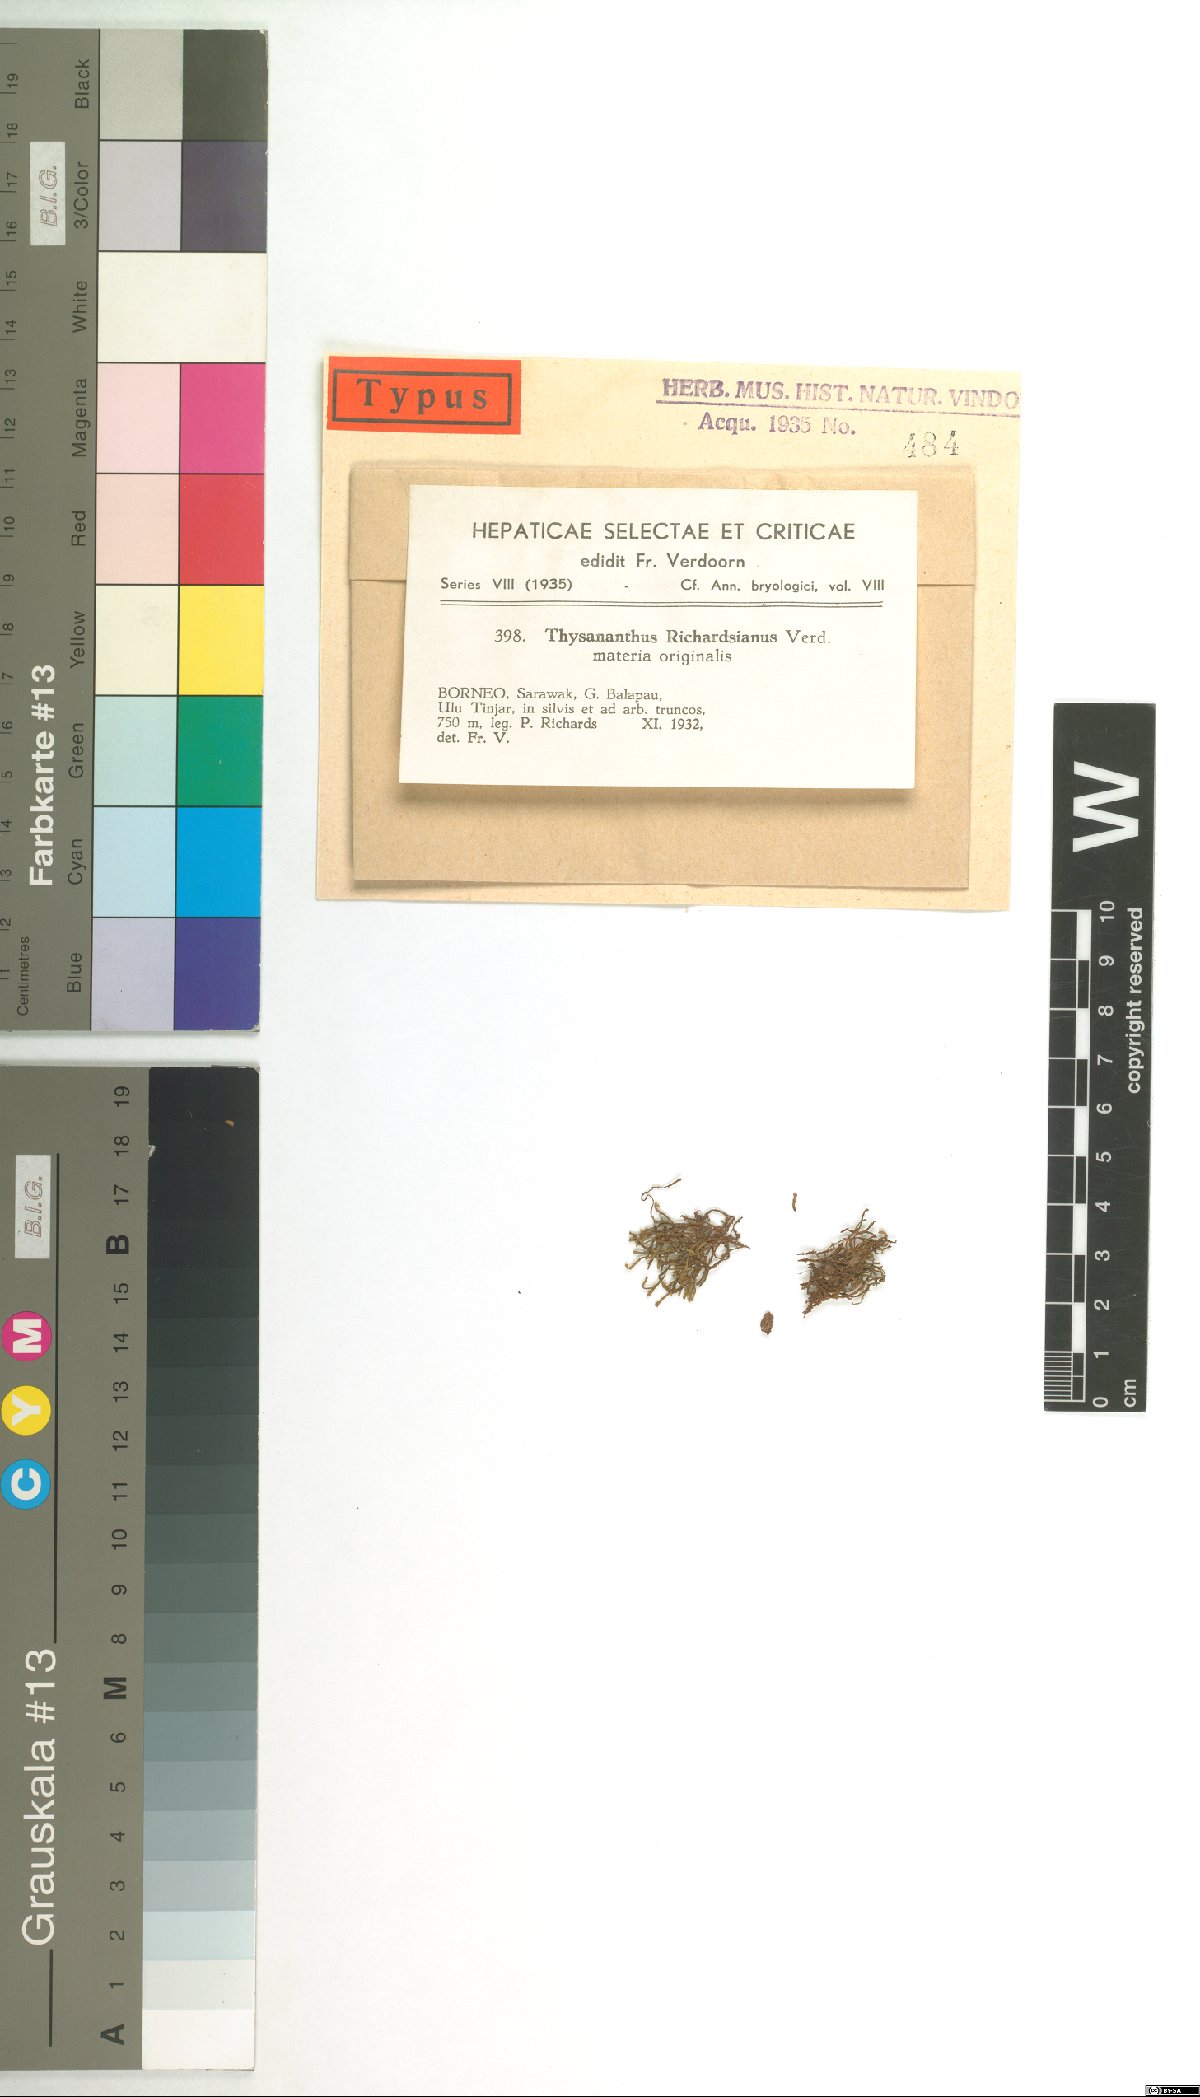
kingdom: Plantae
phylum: Marchantiophyta
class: Jungermanniopsida
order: Porellales
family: Lejeuneaceae
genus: Thysananthus
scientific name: Thysananthus aculeatus
